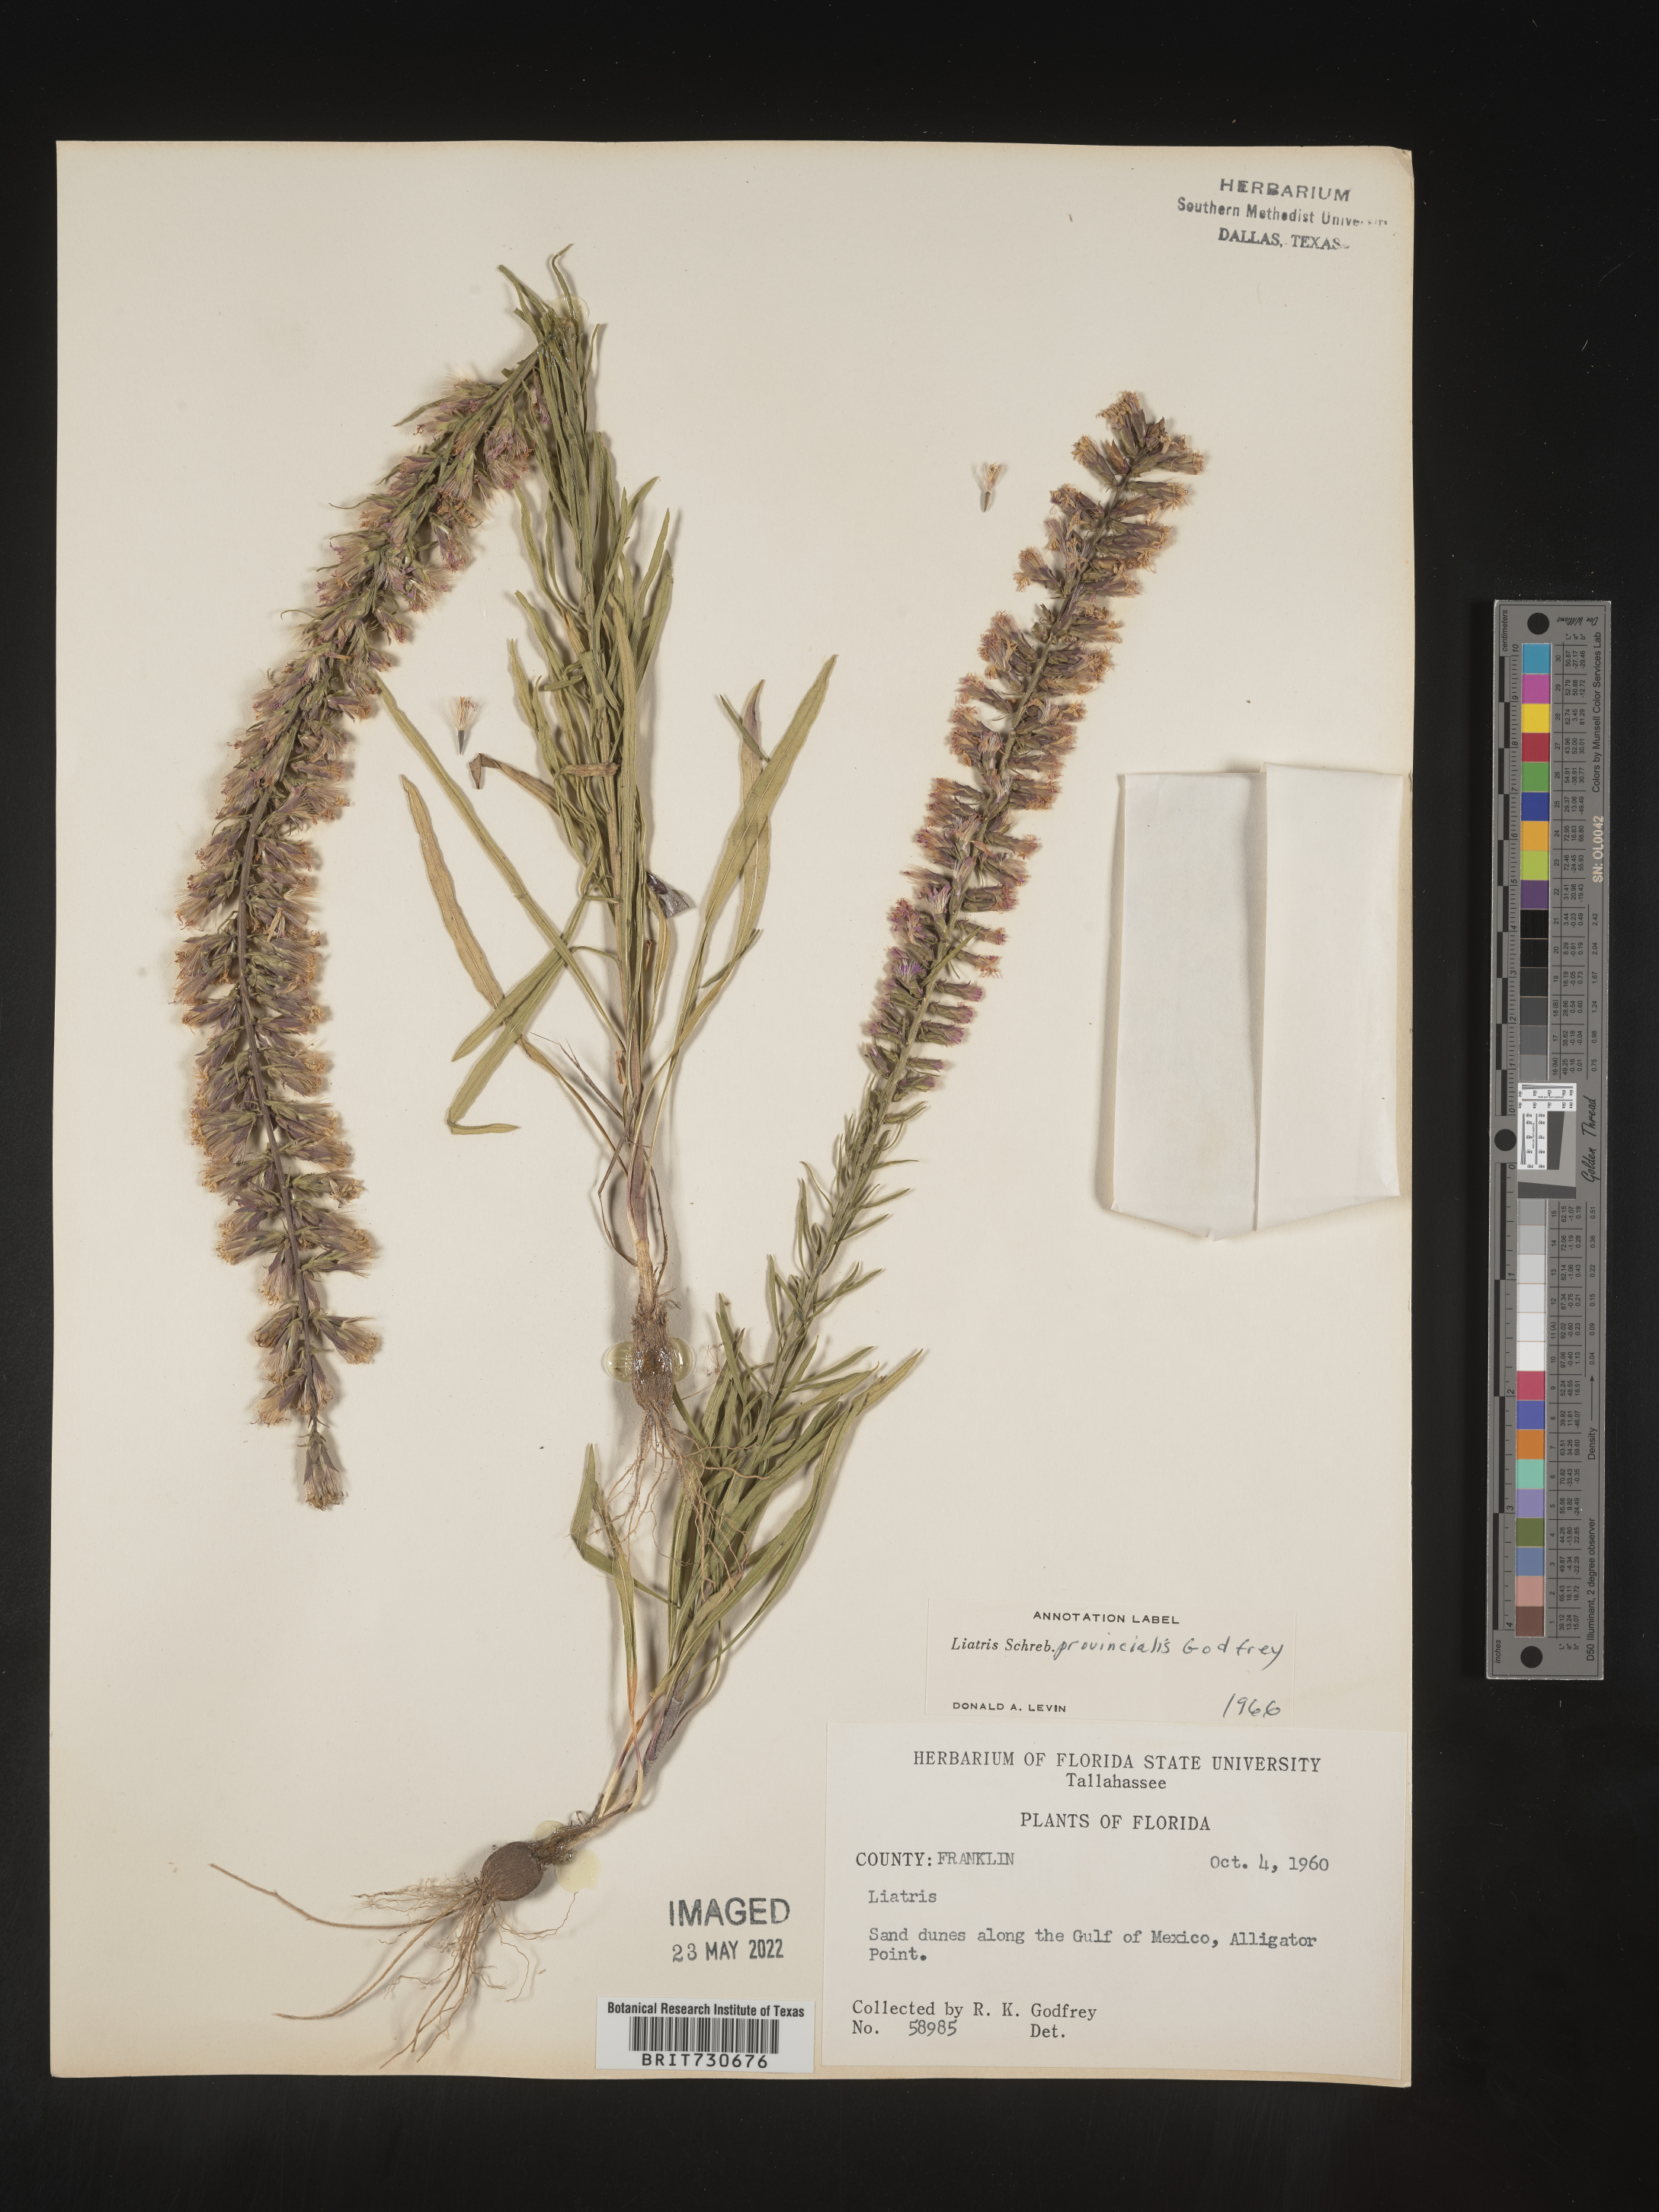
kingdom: Plantae
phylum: Tracheophyta
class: Magnoliopsida
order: Asterales
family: Asteraceae
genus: Liatris
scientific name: Liatris provincialis
